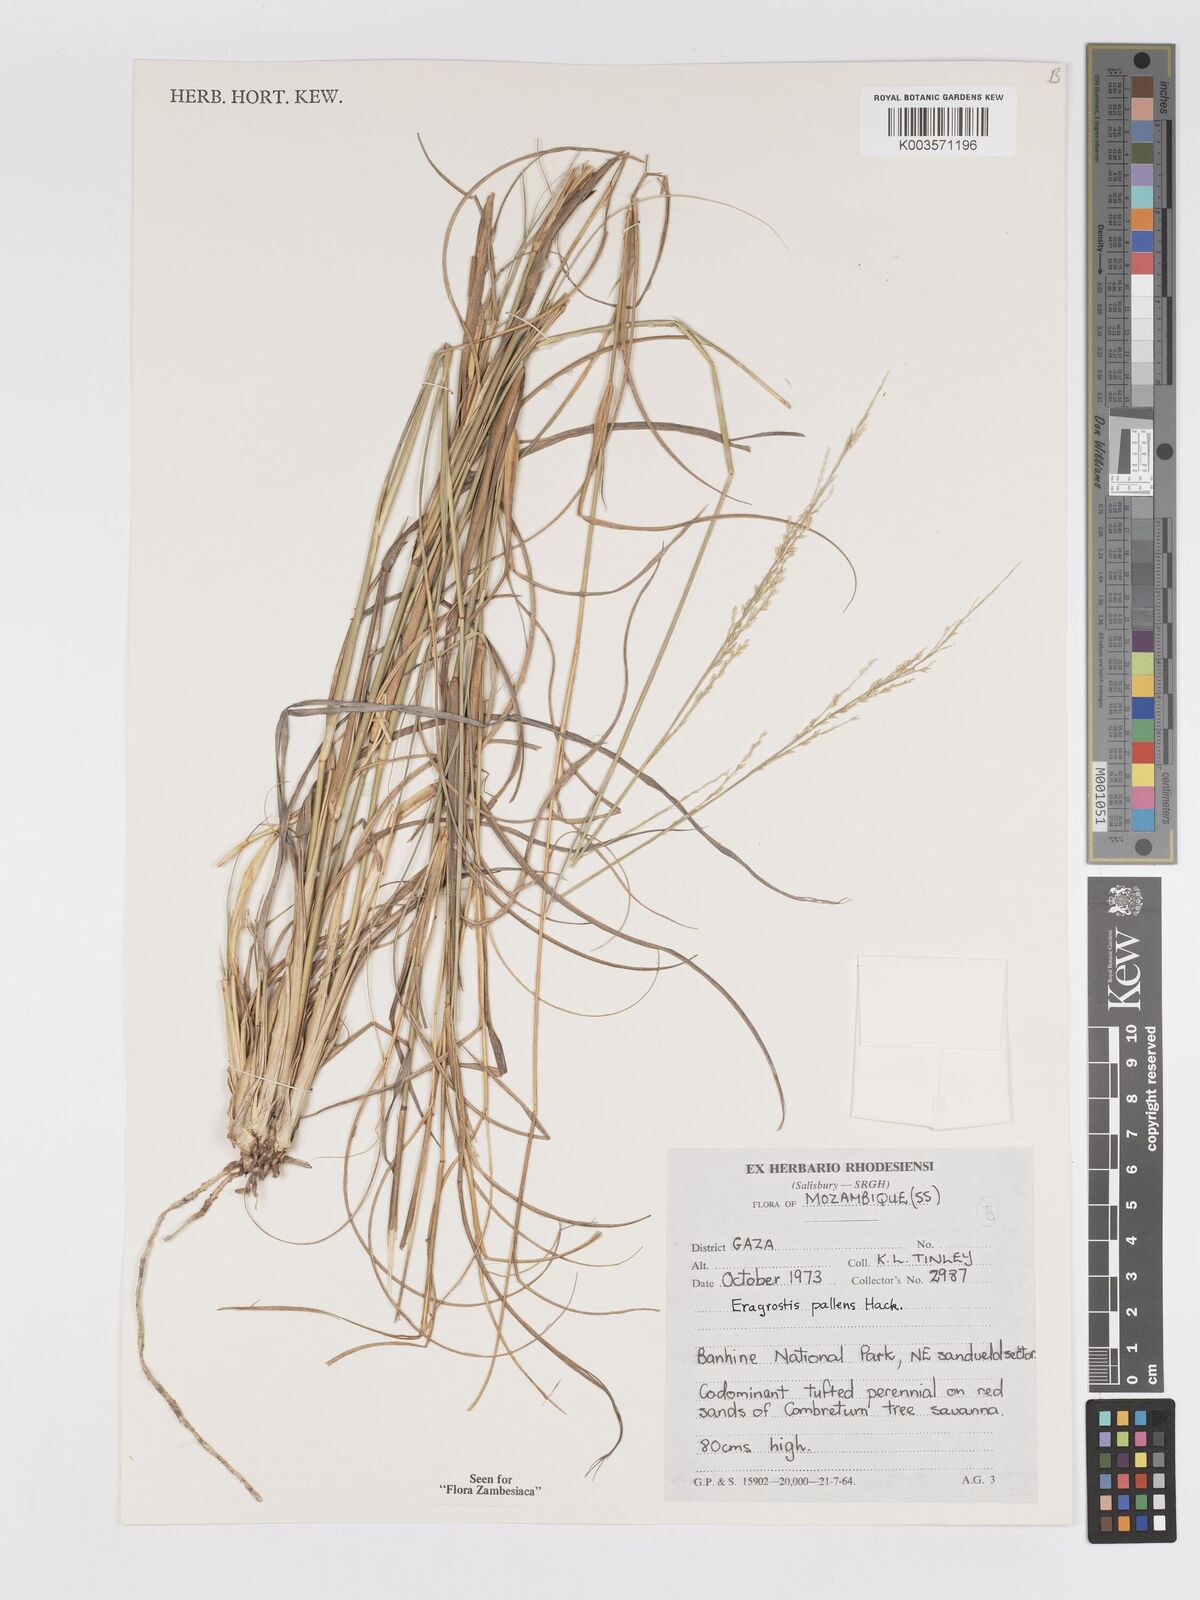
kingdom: Plantae
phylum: Tracheophyta
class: Liliopsida
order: Poales
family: Poaceae
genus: Eragrostis
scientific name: Eragrostis pallens
